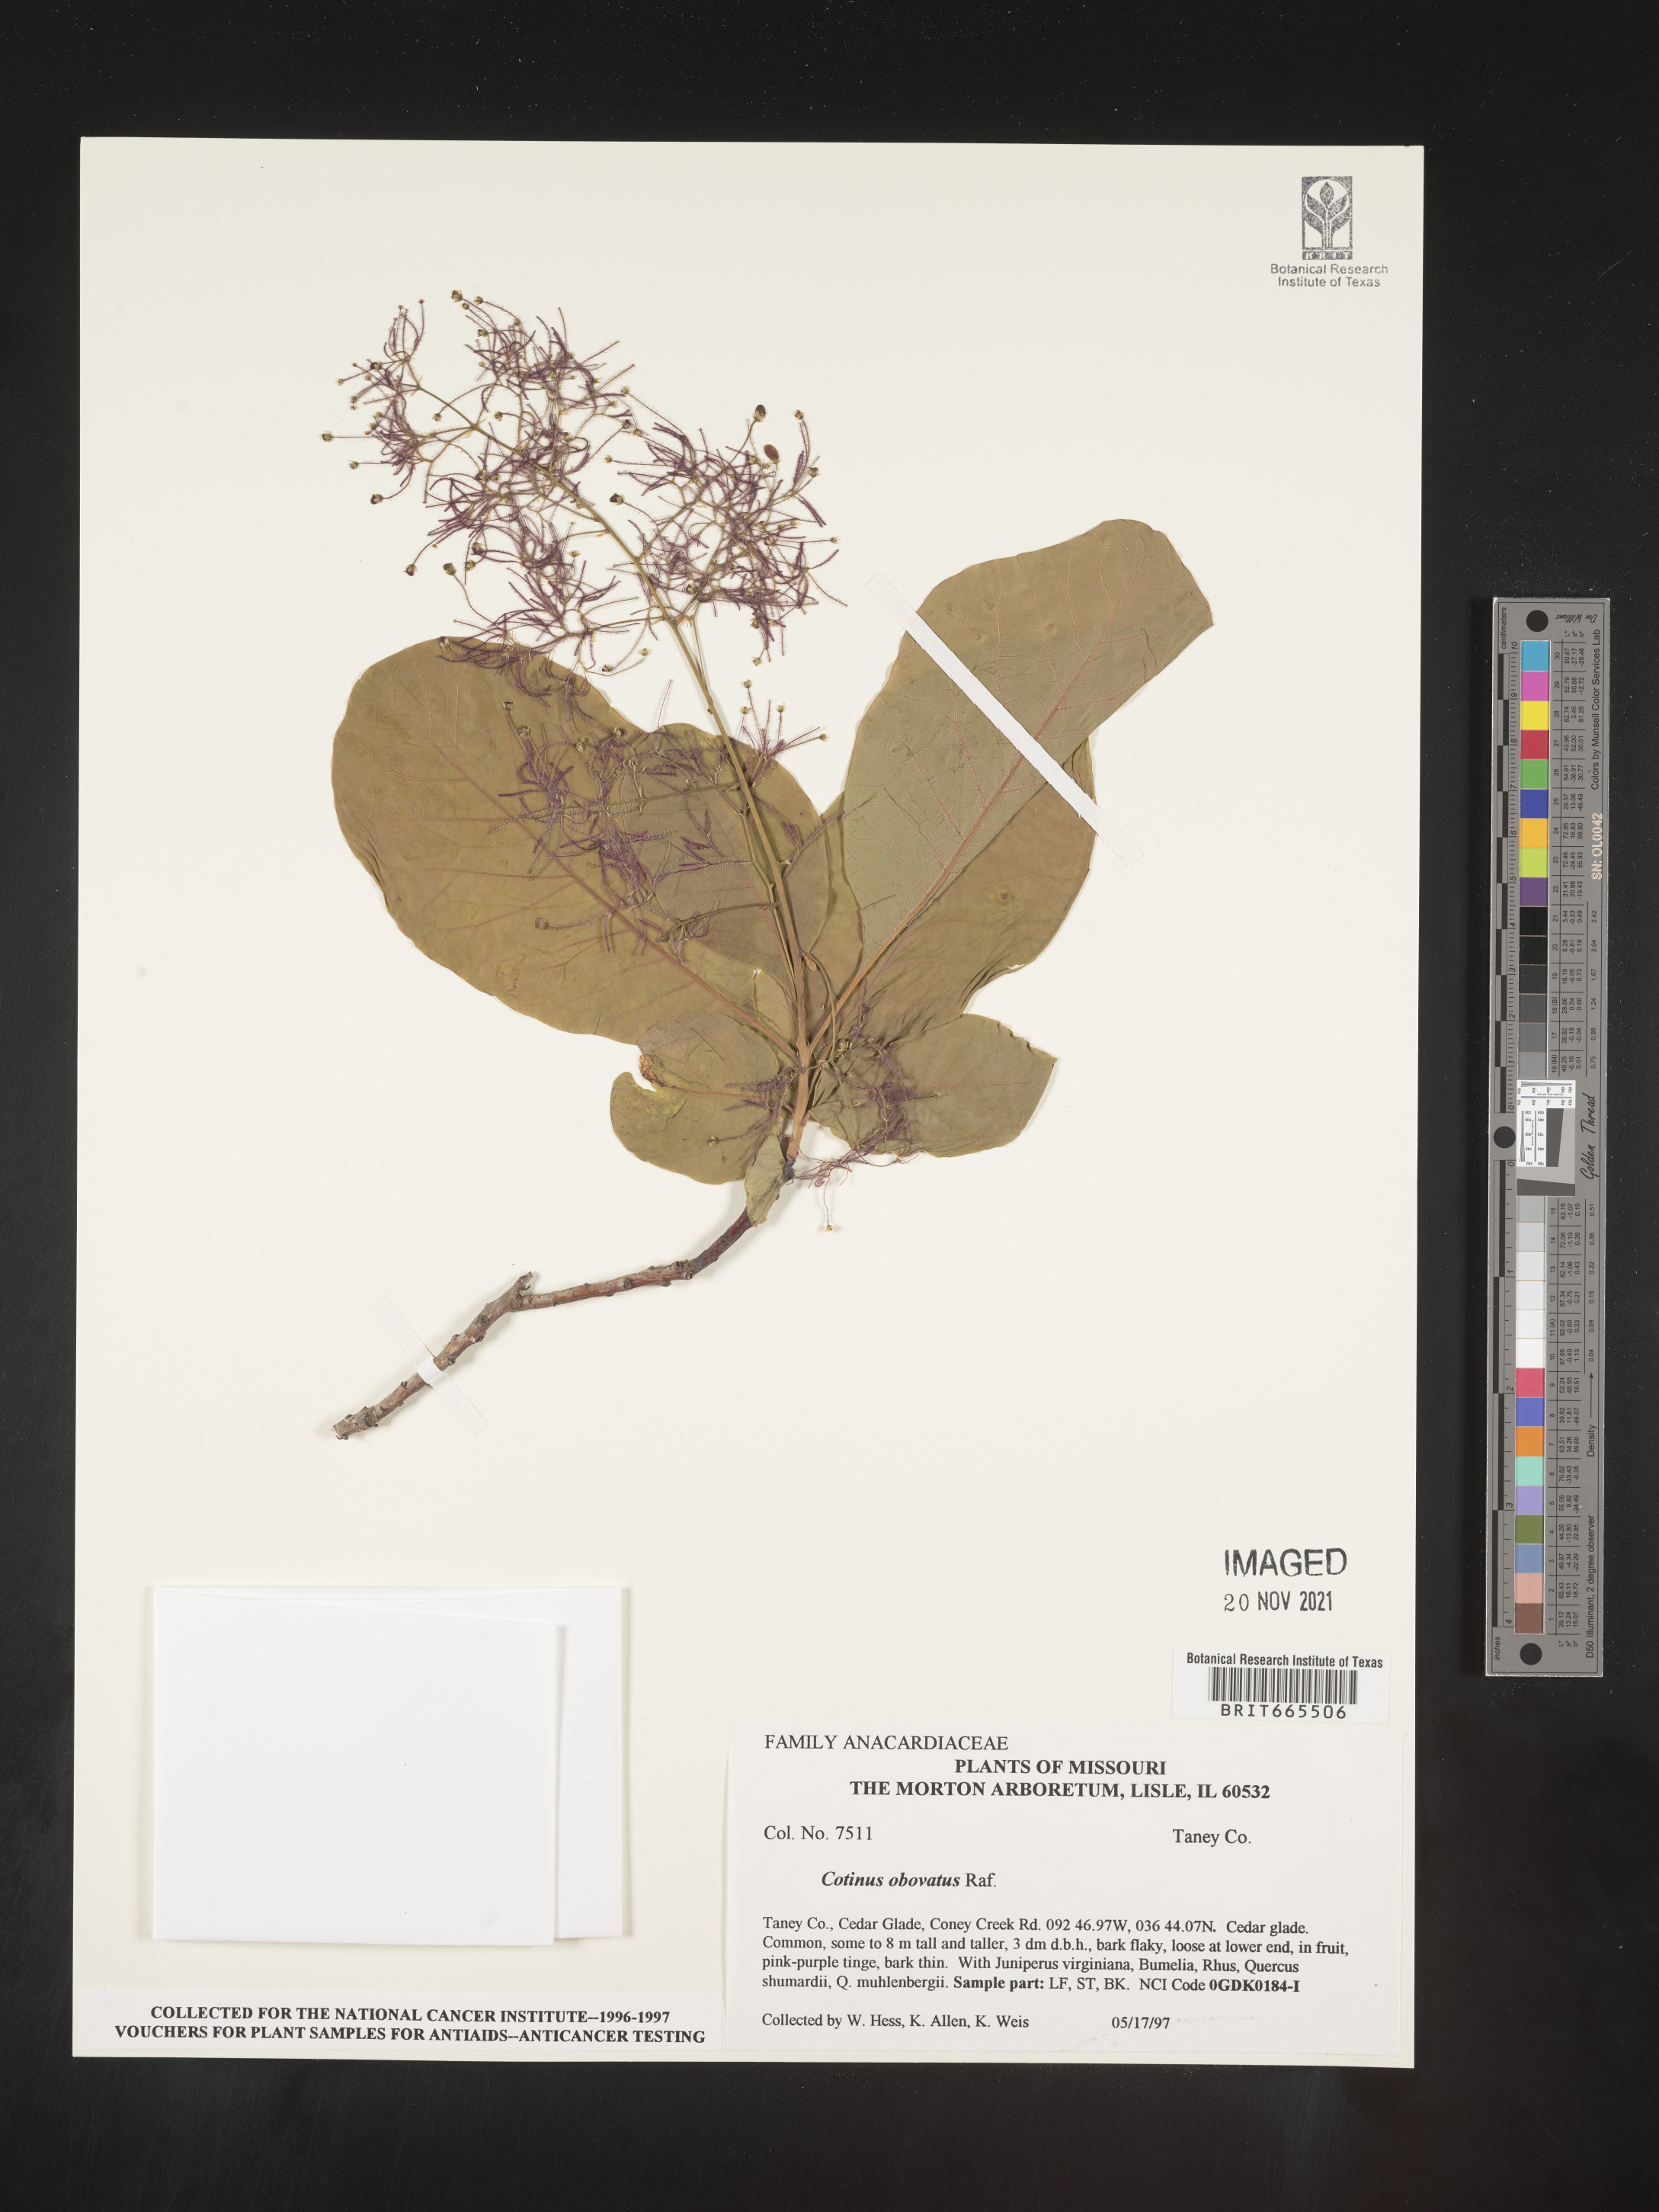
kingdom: Plantae
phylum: Tracheophyta
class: Magnoliopsida
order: Sapindales
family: Anacardiaceae
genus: Cotinus
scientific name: Cotinus obovatus
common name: Chittamwood
